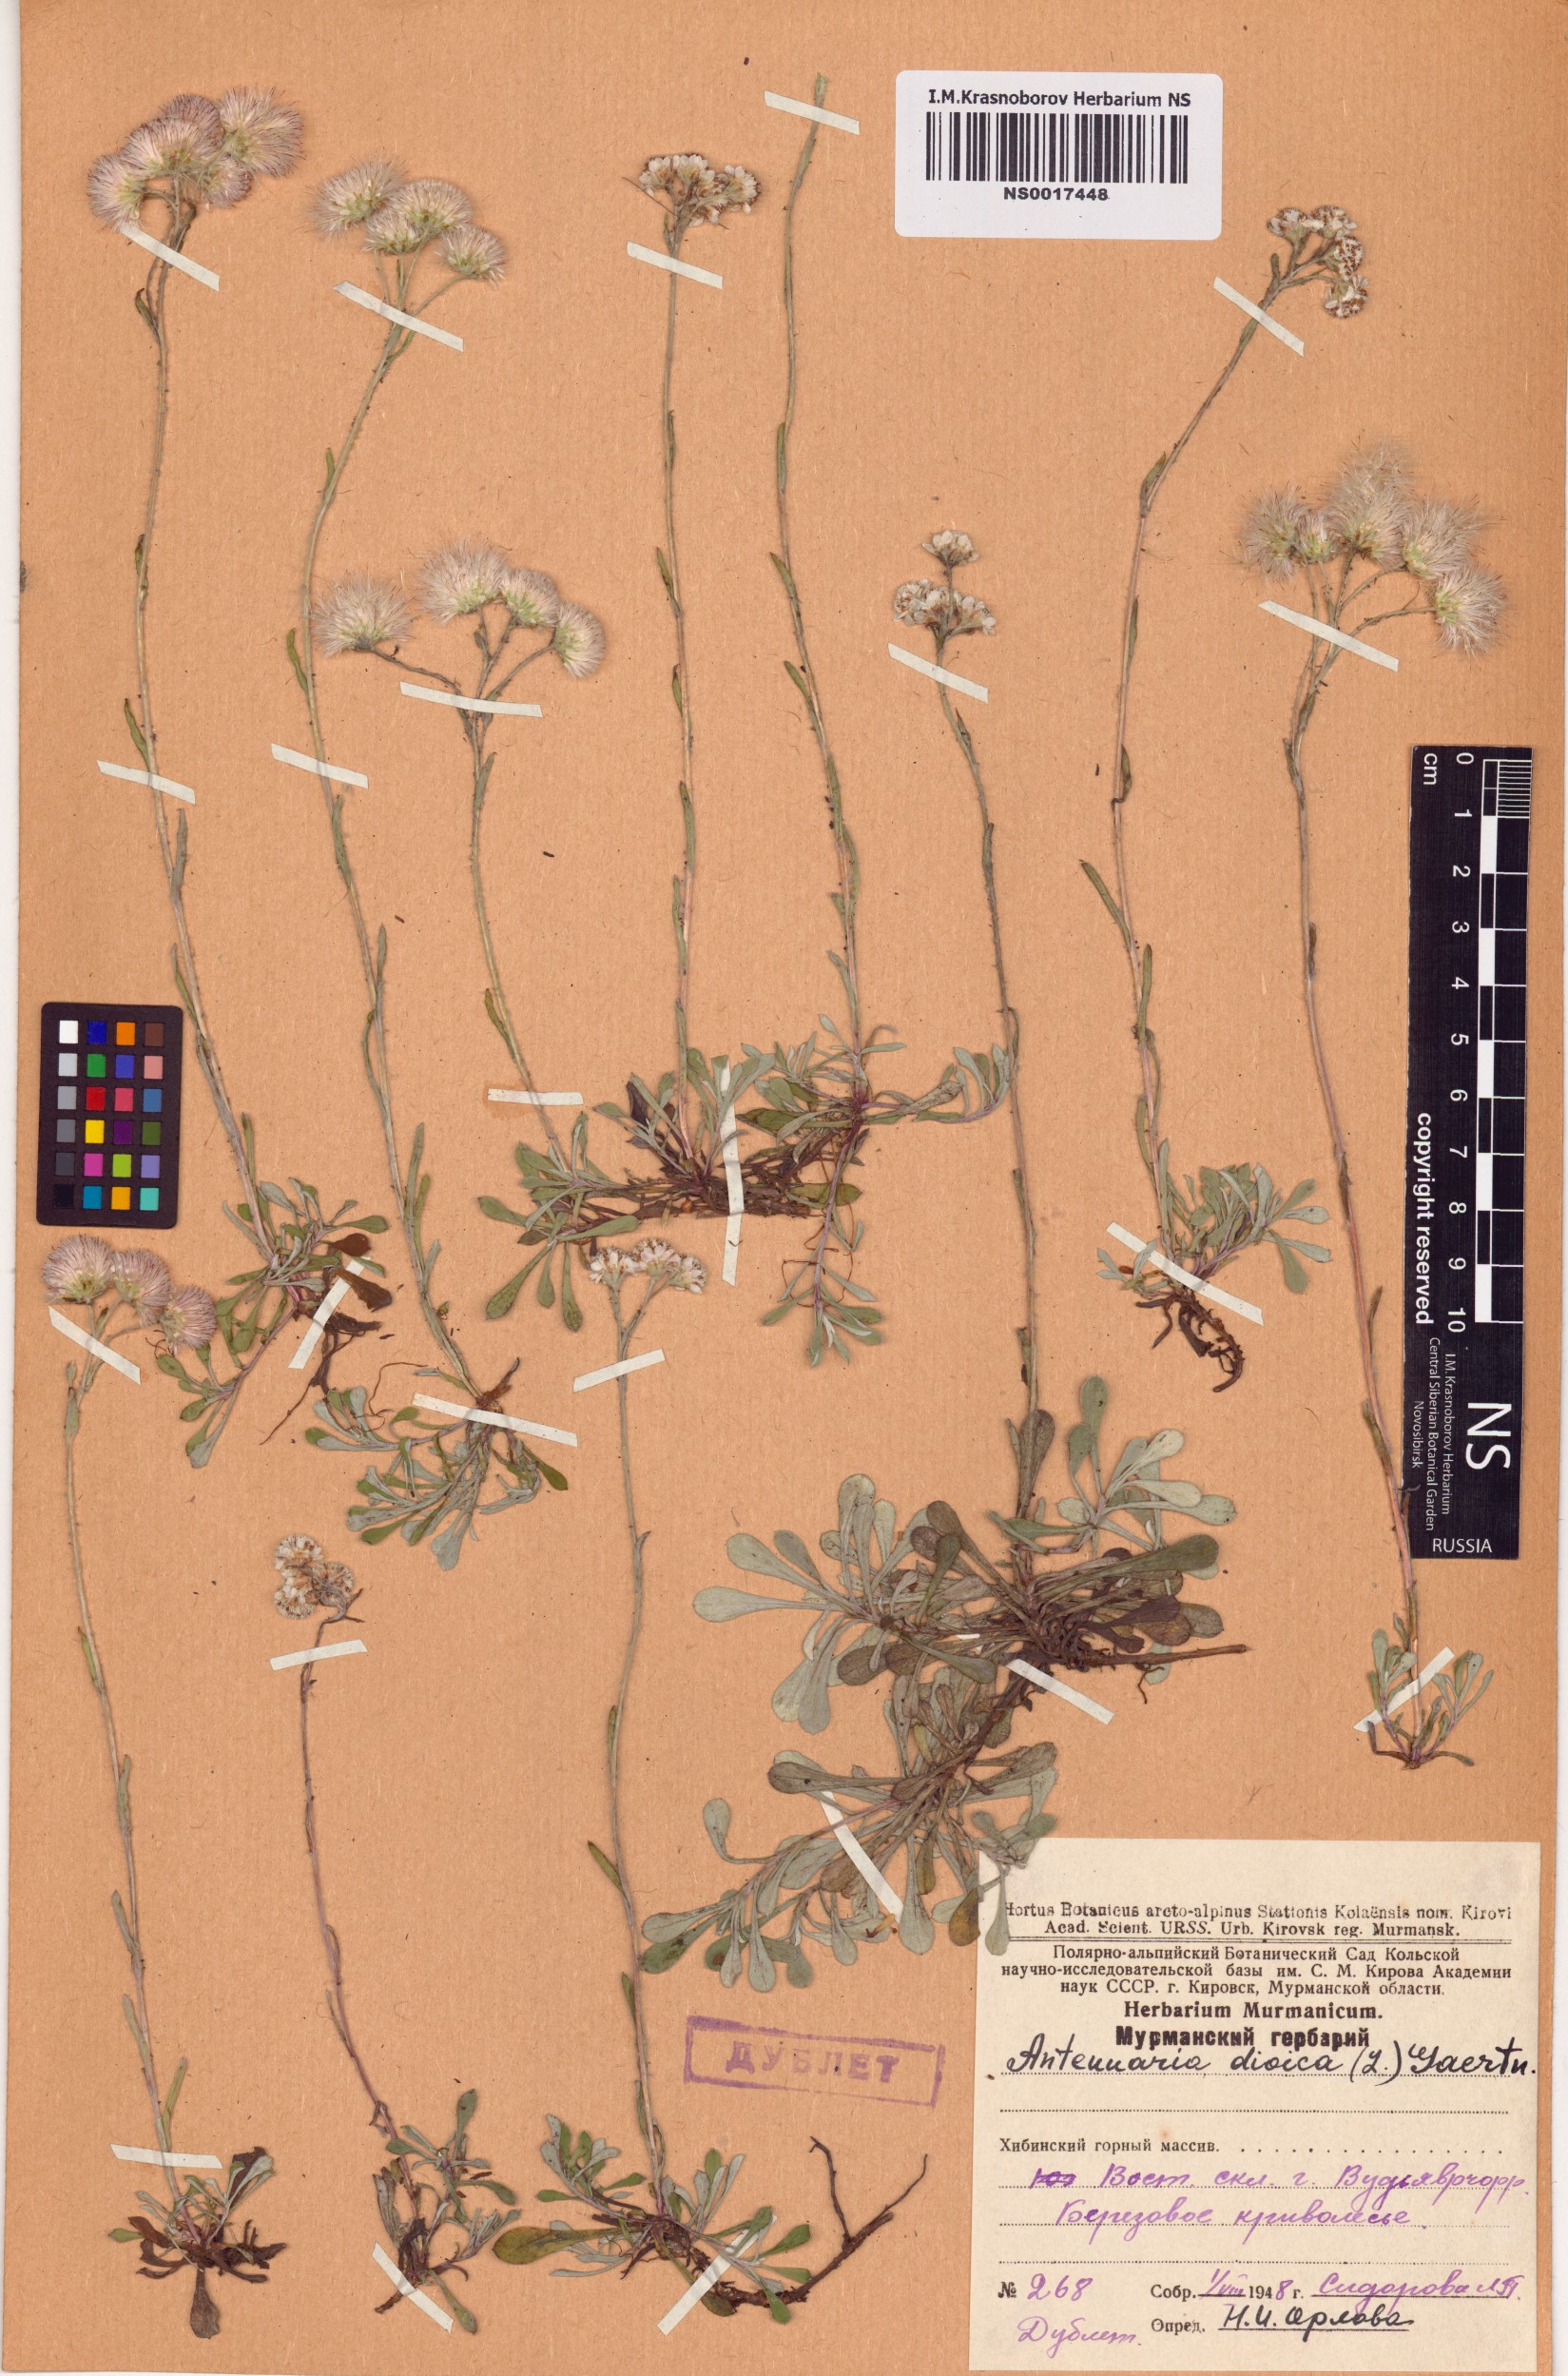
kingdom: Plantae
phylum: Tracheophyta
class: Magnoliopsida
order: Asterales
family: Asteraceae
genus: Antennaria
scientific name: Antennaria dioica
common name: Mountain everlasting
